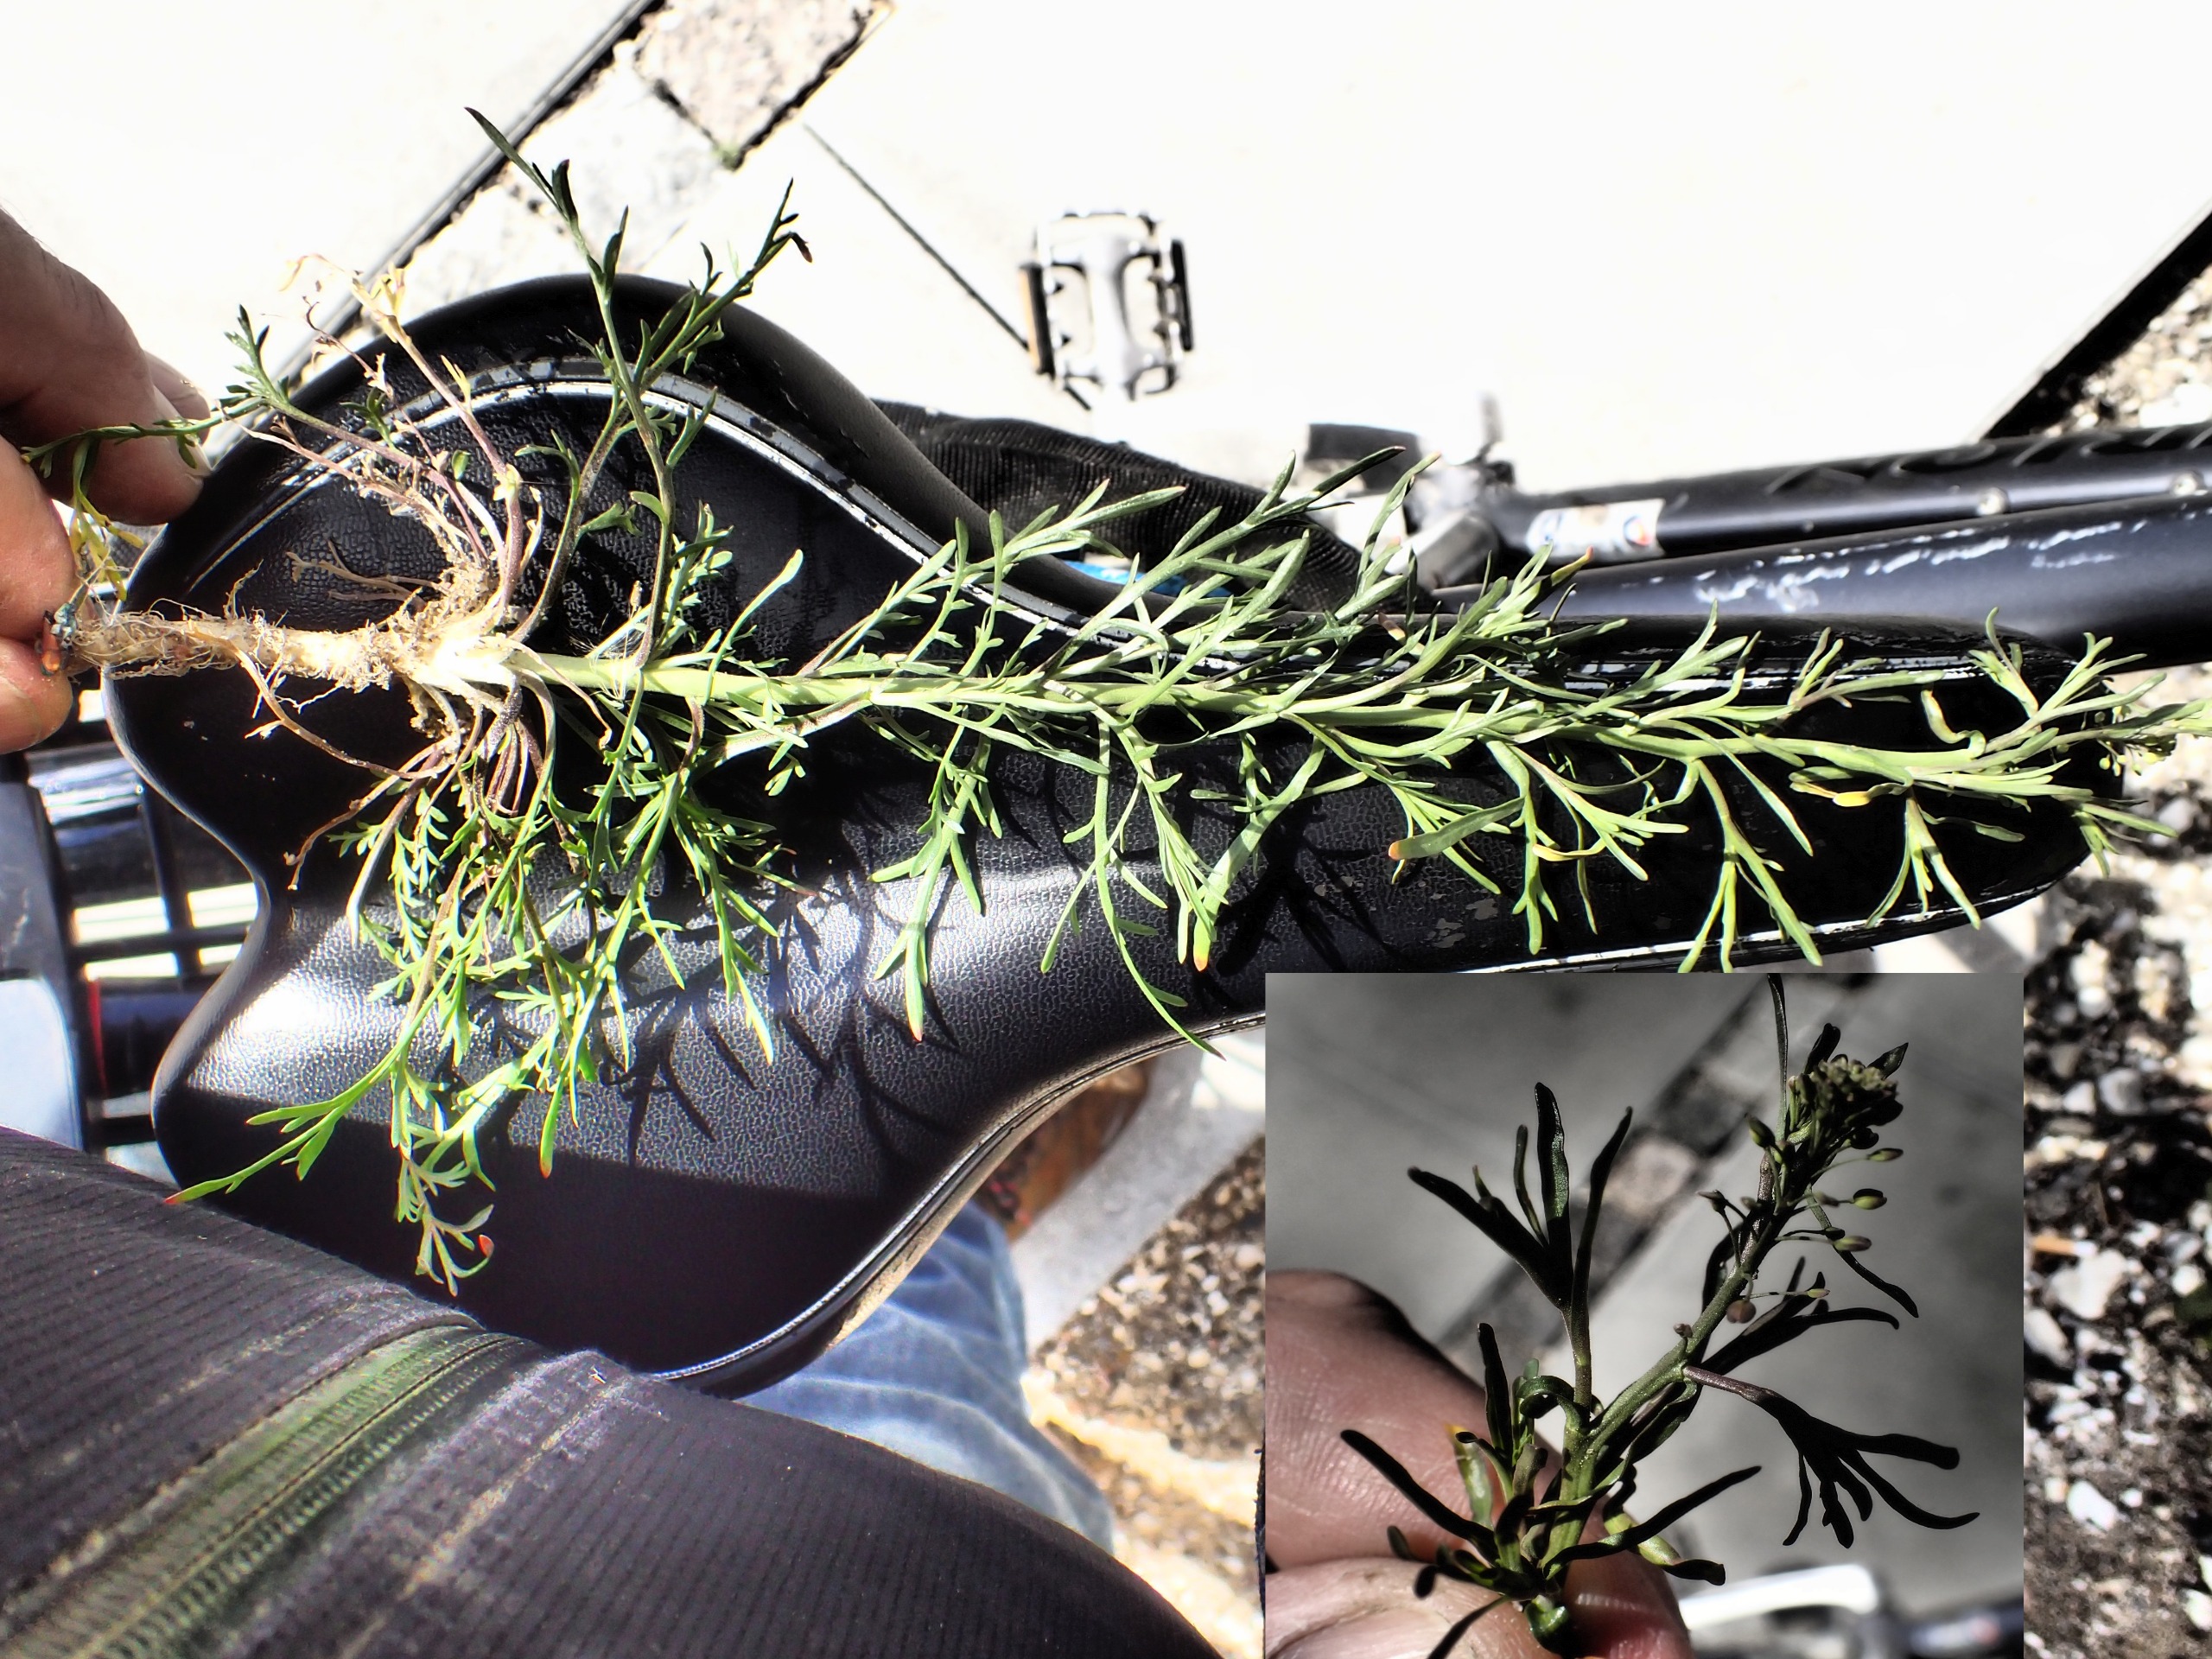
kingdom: Plantae
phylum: Tracheophyta
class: Magnoliopsida
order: Brassicales
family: Brassicaceae
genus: Lepidium
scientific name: Lepidium ruderale
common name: Stinkende karse
